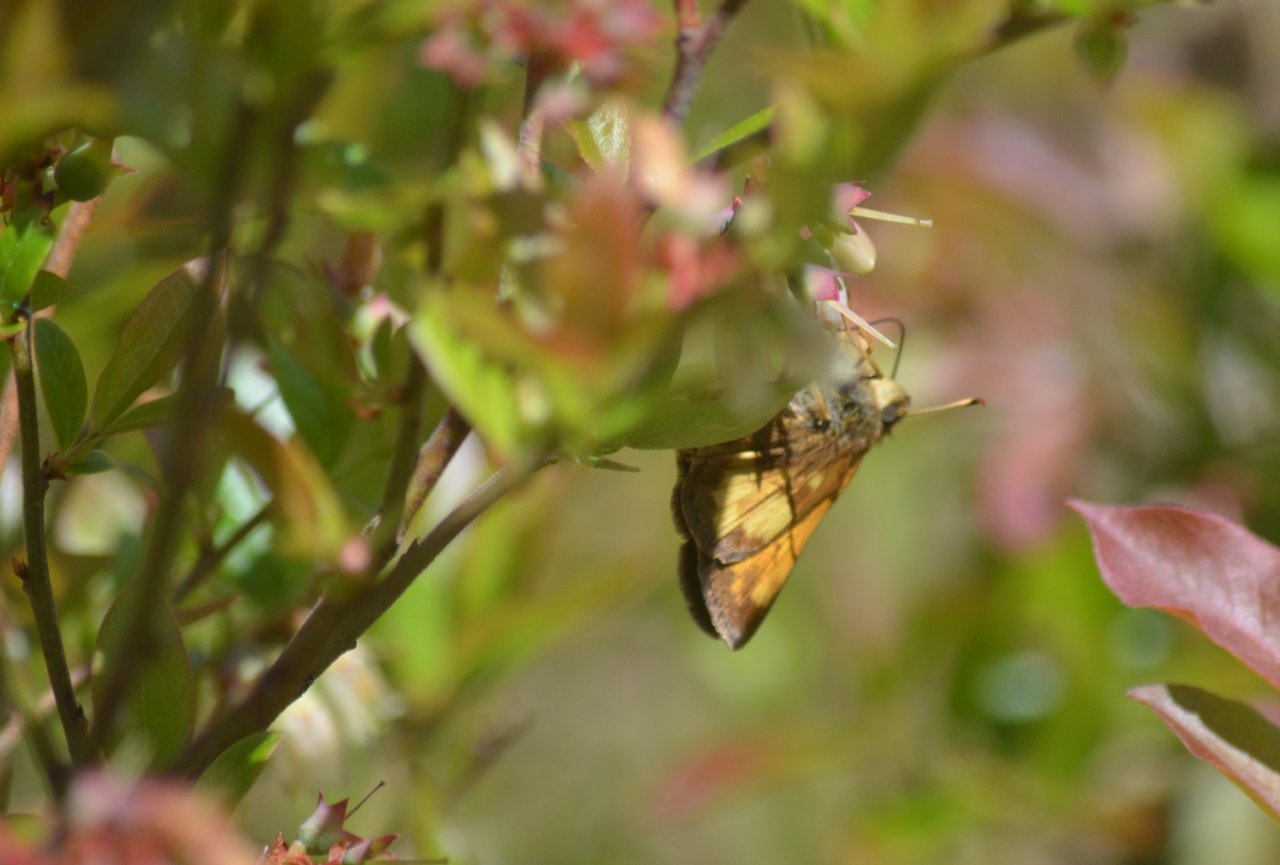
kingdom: Animalia
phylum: Arthropoda
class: Insecta
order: Lepidoptera
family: Hesperiidae
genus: Lon
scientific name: Lon hobomok
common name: Hobomok Skipper
